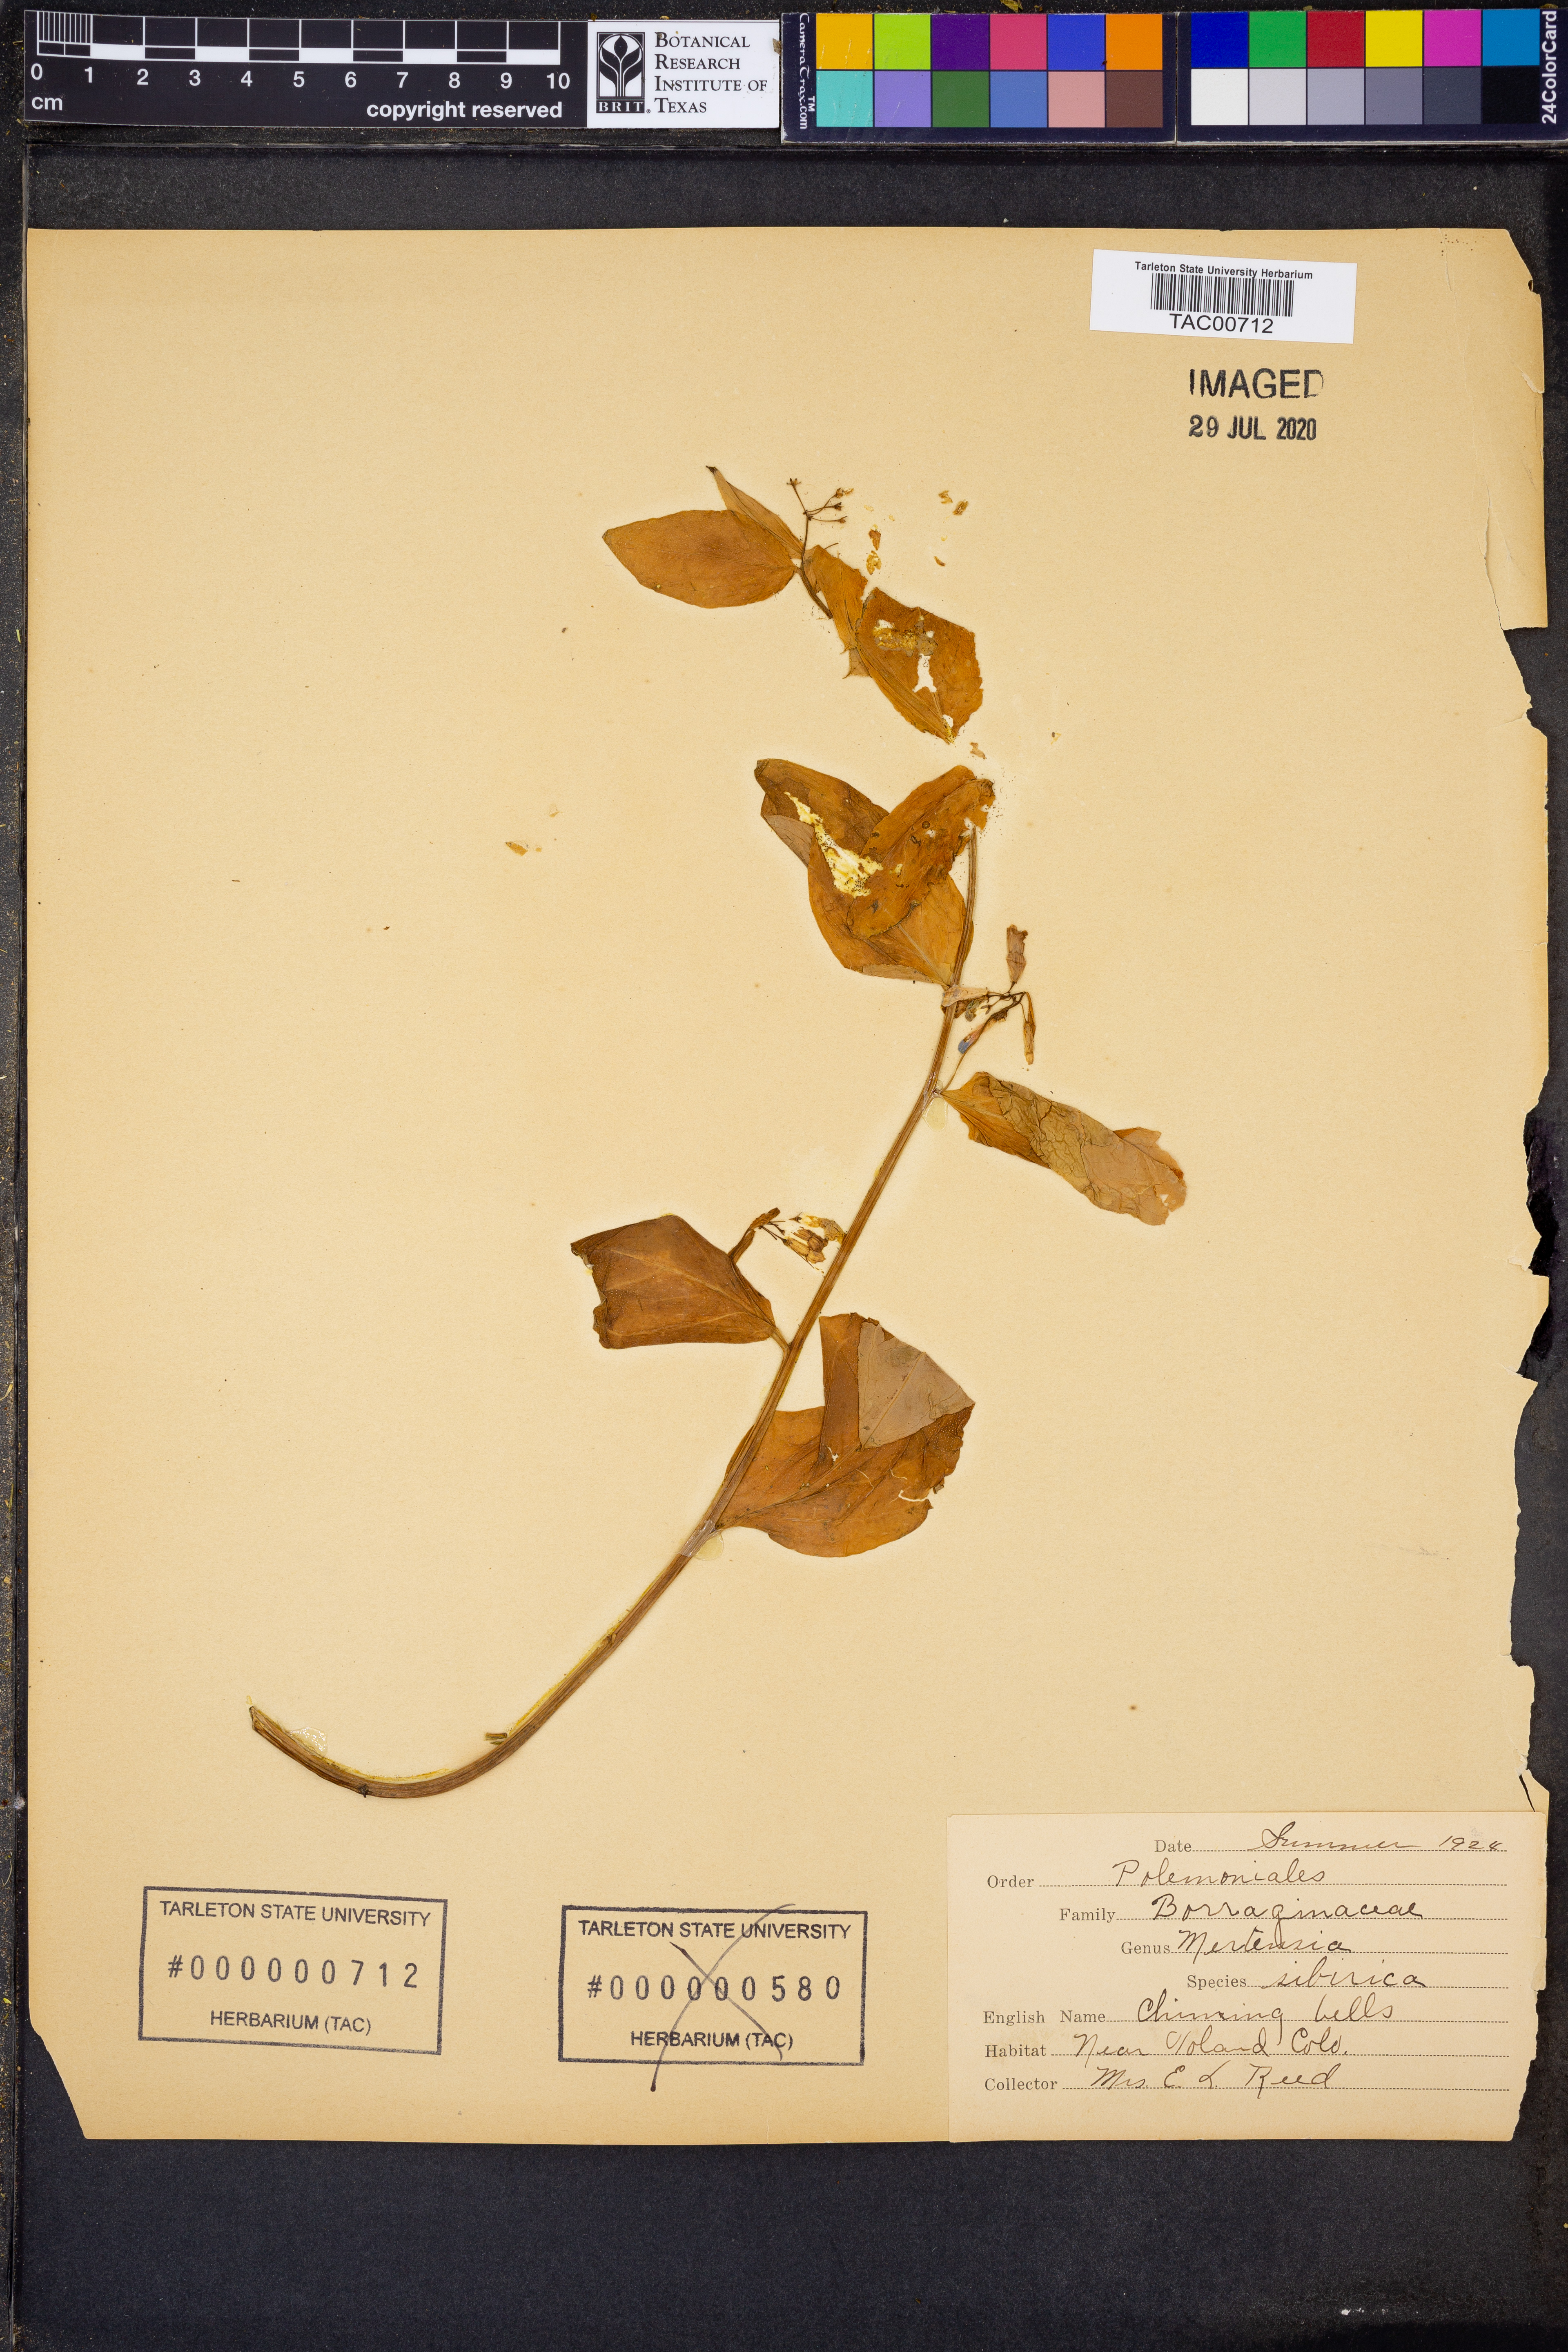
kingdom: Plantae
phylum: Tracheophyta
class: Magnoliopsida
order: Boraginales
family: Boraginaceae
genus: Mertensia
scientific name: Mertensia sibirica
